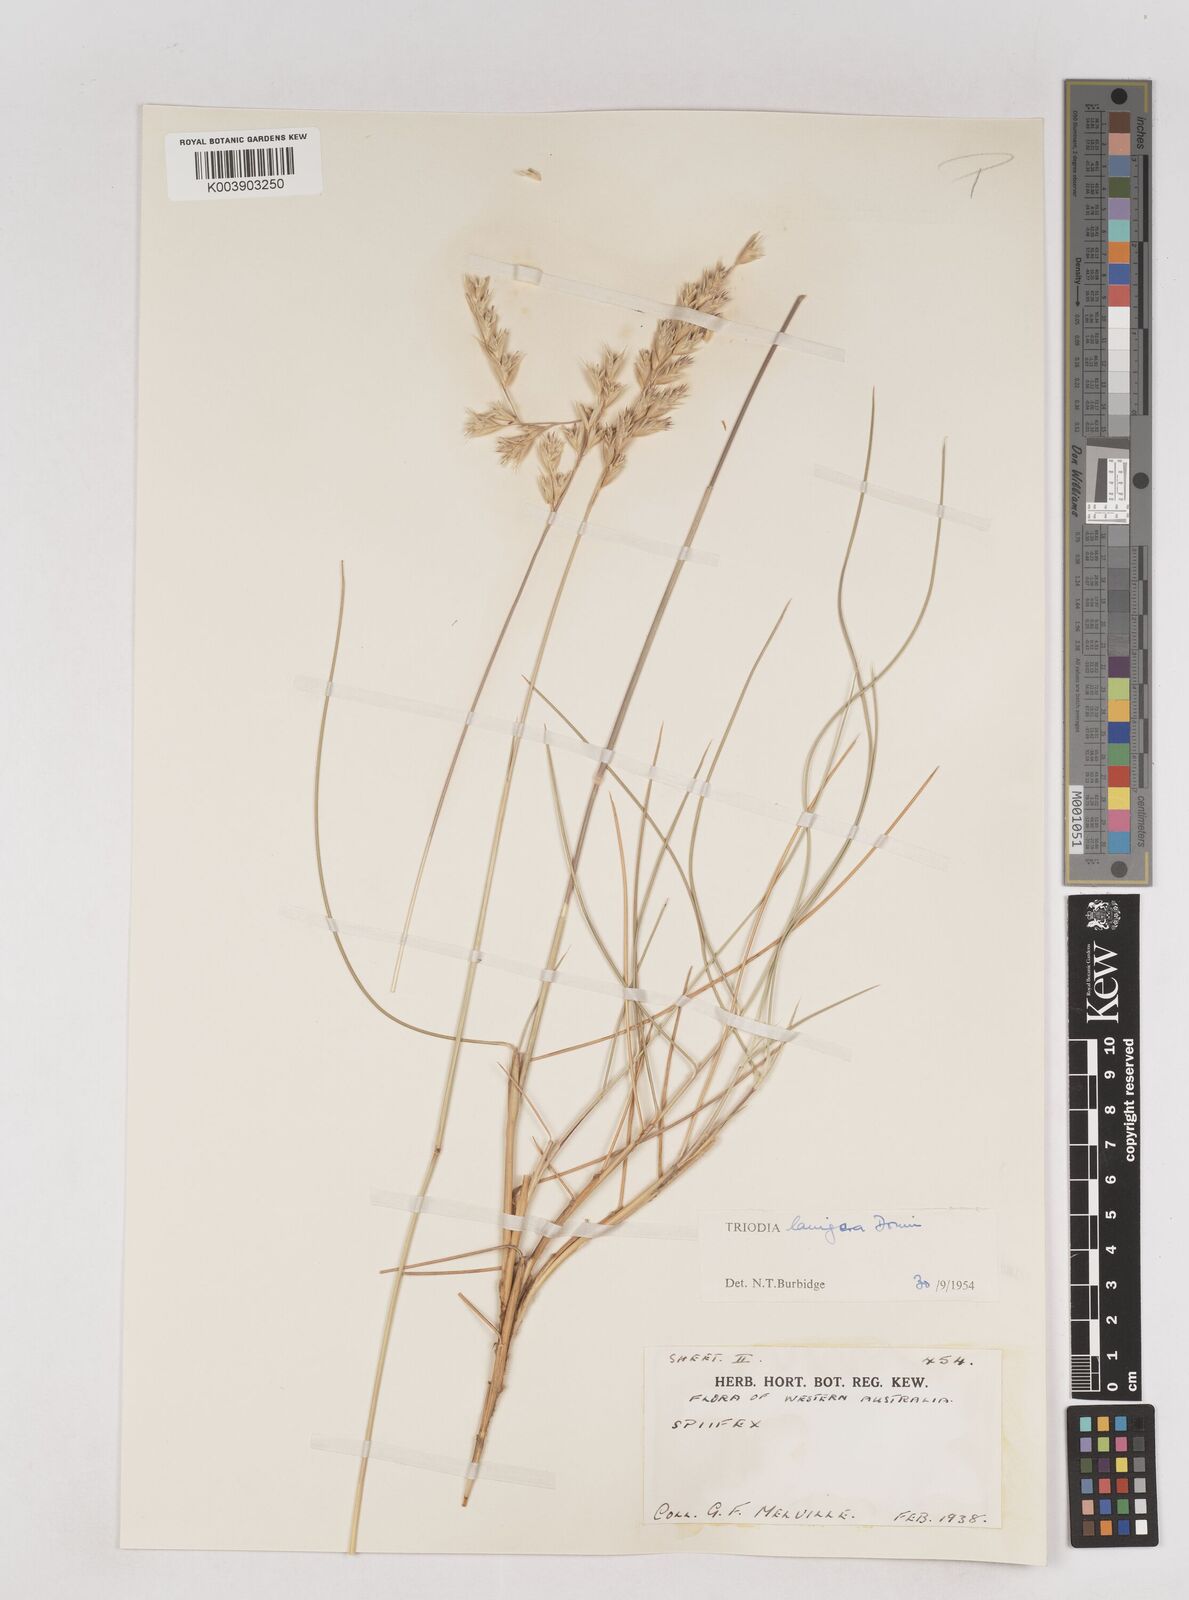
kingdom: Plantae
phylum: Tracheophyta
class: Liliopsida
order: Poales
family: Poaceae
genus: Triodia
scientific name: Triodia lanigera
